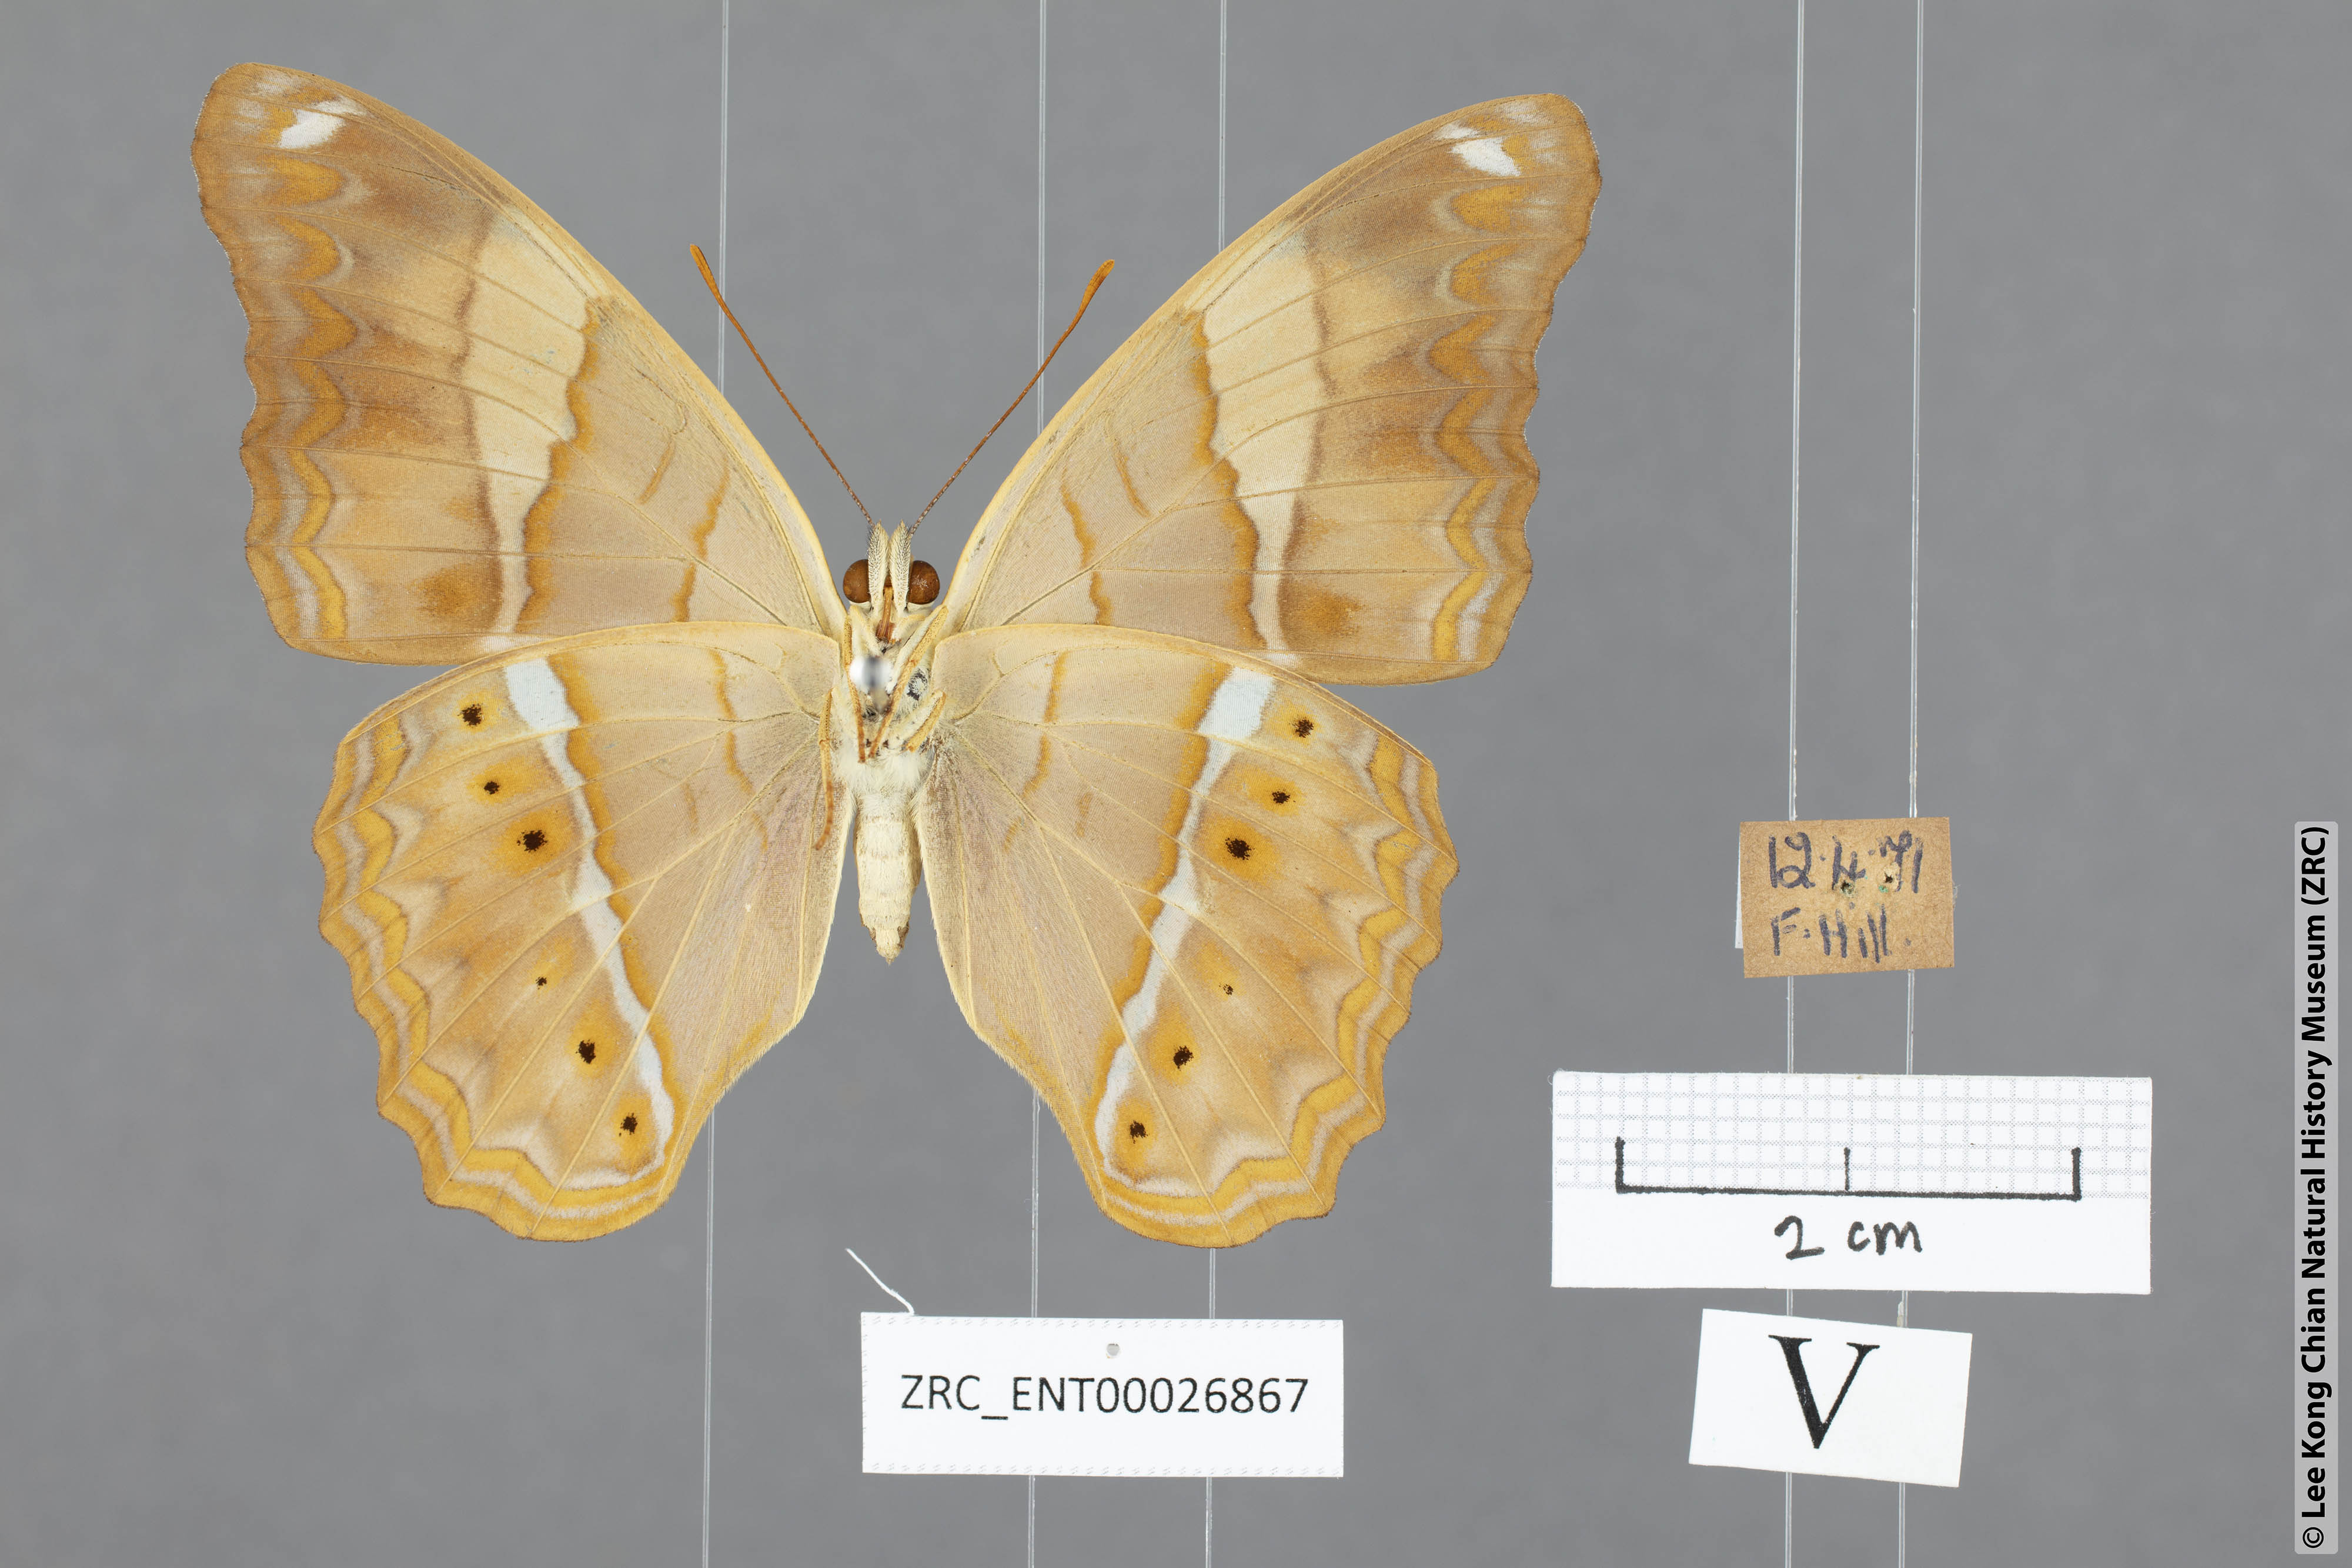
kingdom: Animalia
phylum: Arthropoda
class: Insecta
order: Lepidoptera
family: Nymphalidae
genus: Cirrochroa
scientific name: Cirrochroa emalea
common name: Malay yeoman
